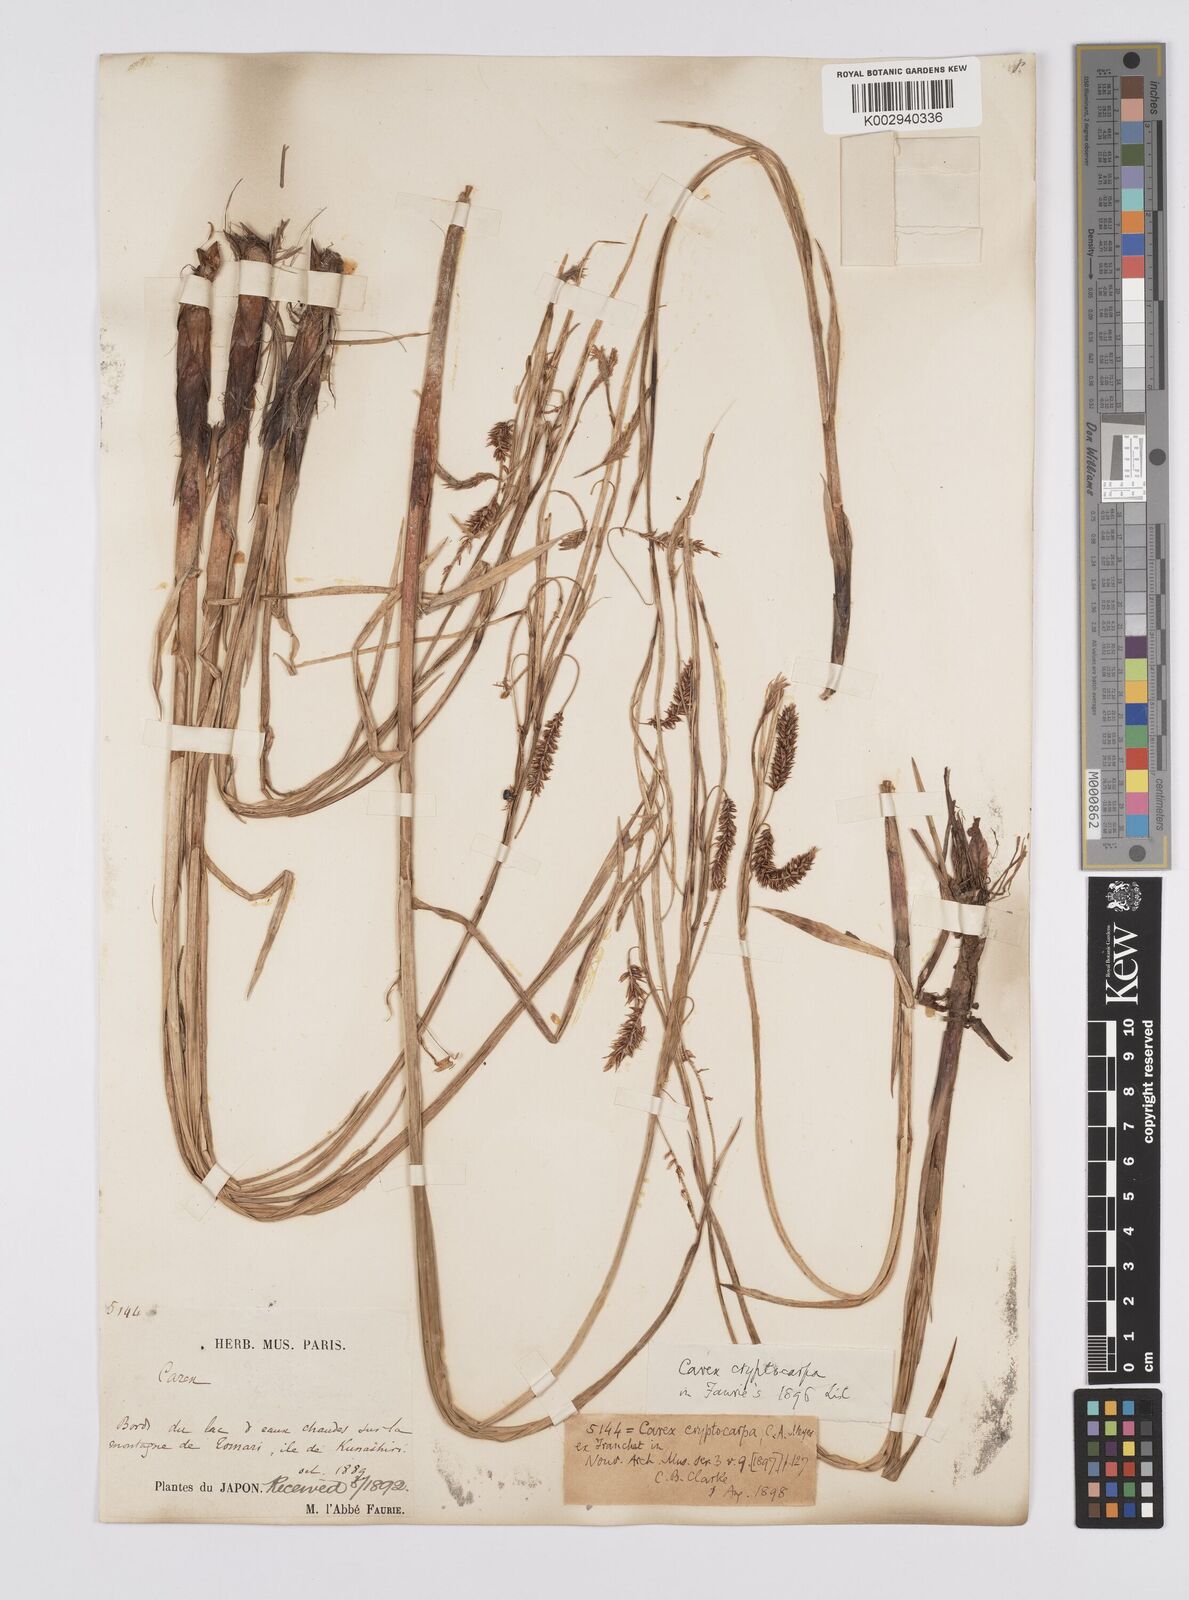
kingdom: Plantae
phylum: Tracheophyta
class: Liliopsida
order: Poales
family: Cyperaceae
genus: Carex
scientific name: Carex lyngbyei
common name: Lyngbye's sedge
